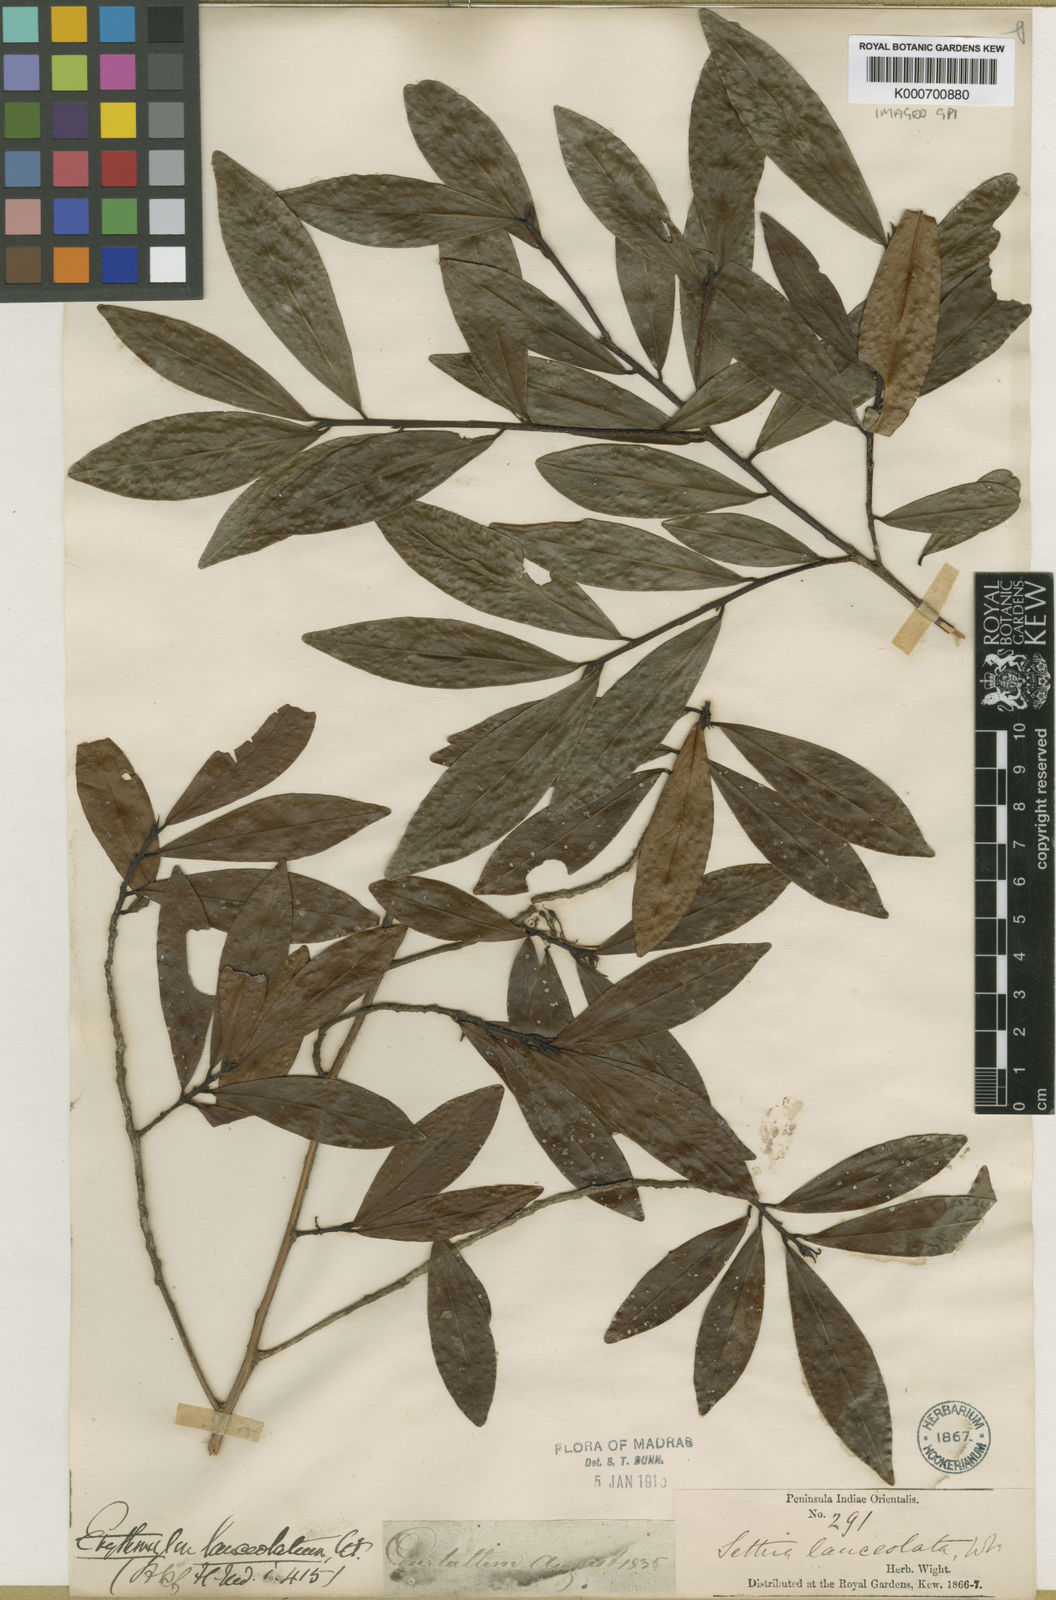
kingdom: Plantae
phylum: Tracheophyta
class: Magnoliopsida
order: Malpighiales
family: Erythroxylaceae
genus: Erythroxylum
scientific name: Erythroxylum lanceolatum
